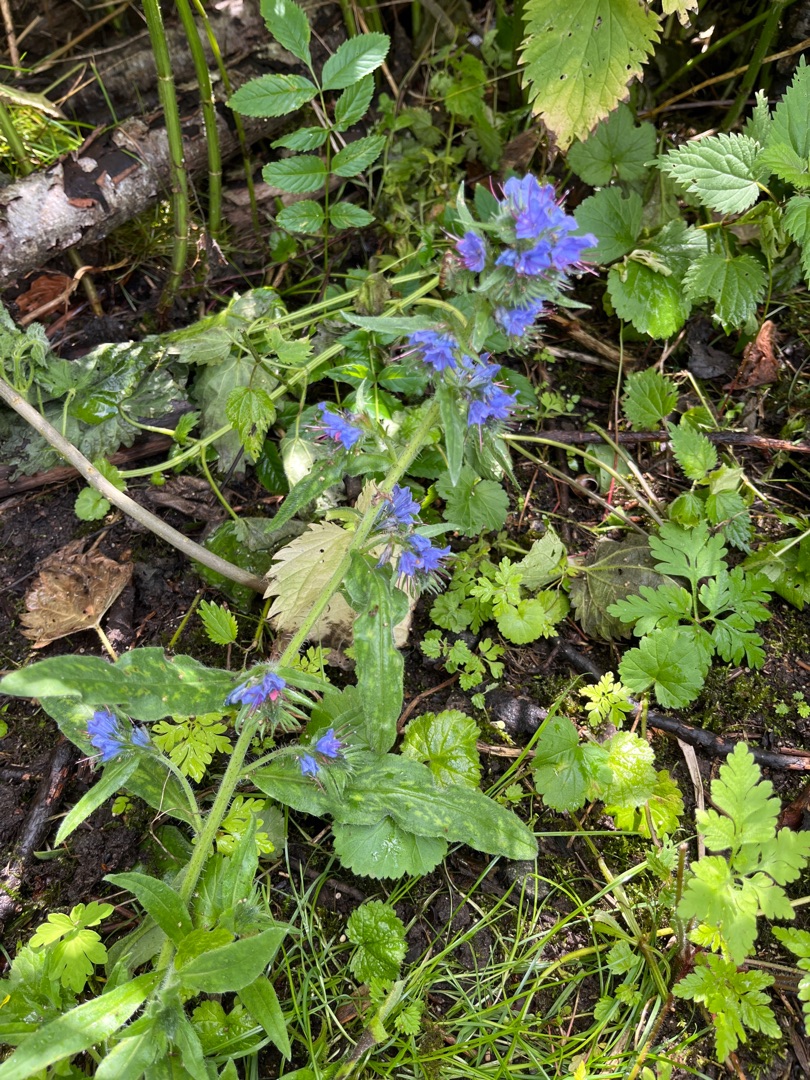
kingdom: Plantae
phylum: Tracheophyta
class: Magnoliopsida
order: Boraginales
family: Boraginaceae
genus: Echium
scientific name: Echium vulgare
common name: Slangehoved
